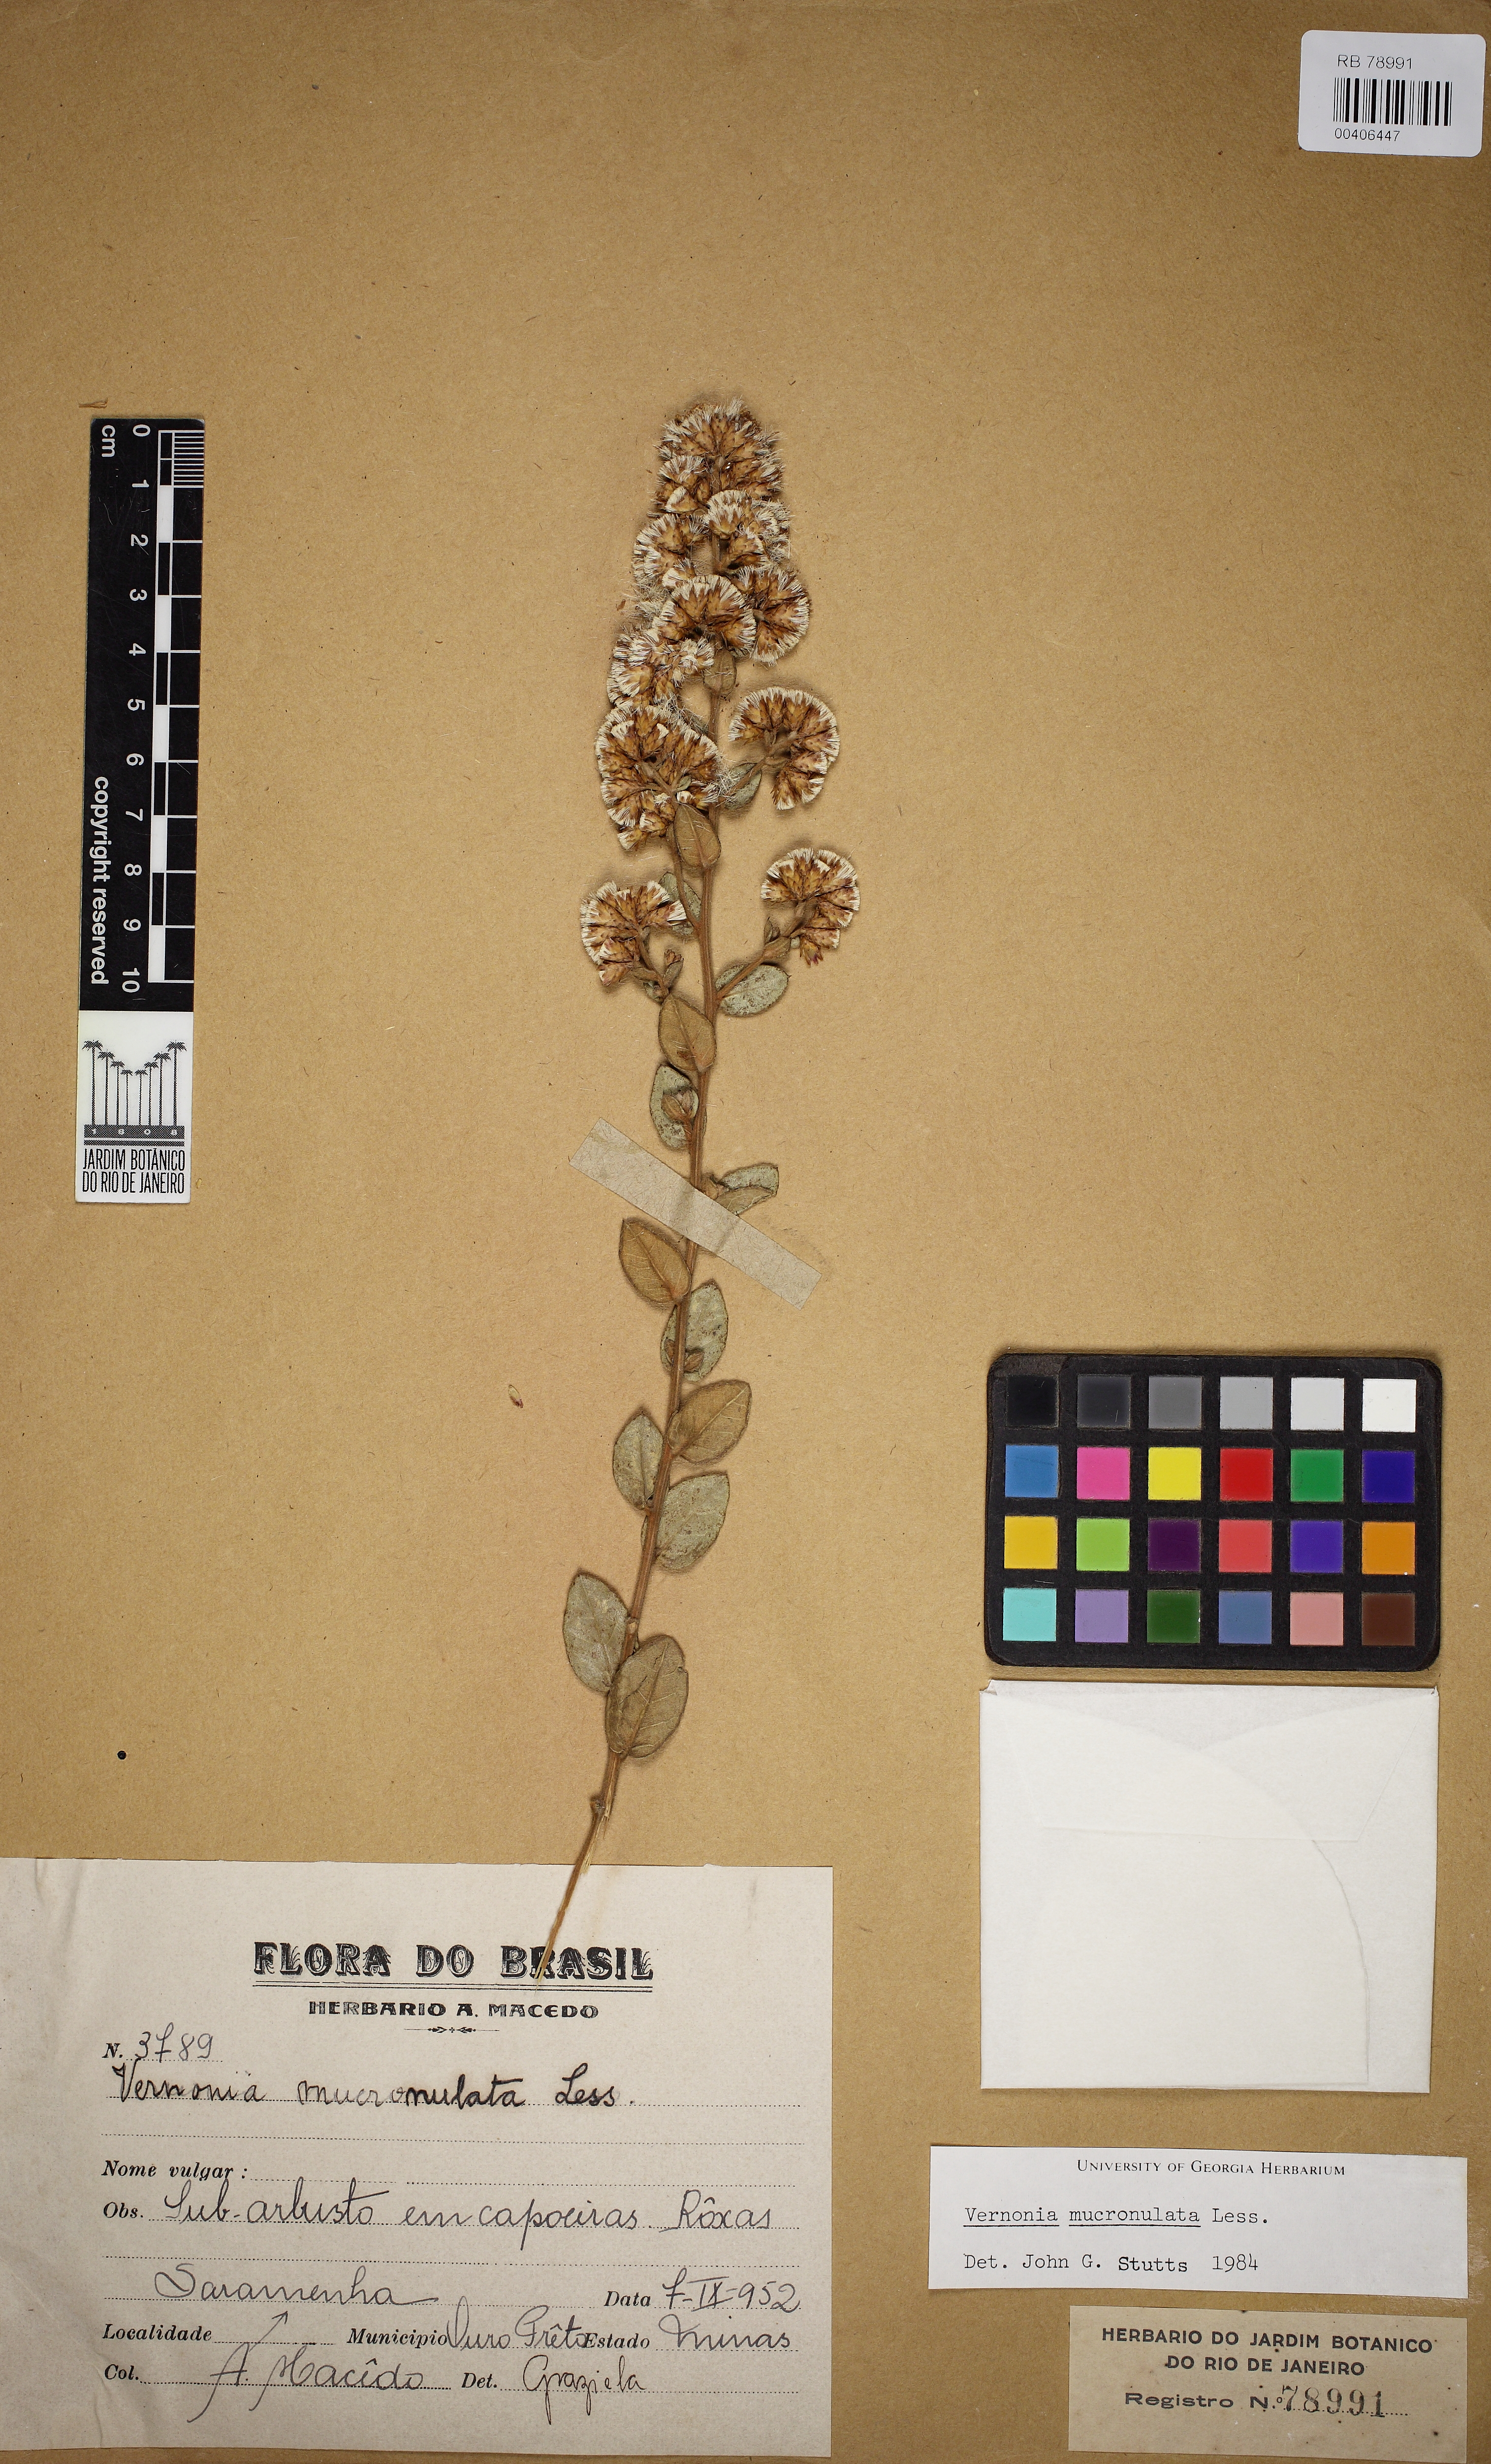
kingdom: Plantae
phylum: Tracheophyta
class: Magnoliopsida
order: Asterales
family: Asteraceae
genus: Eremosis
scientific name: Eremosis foliosa
